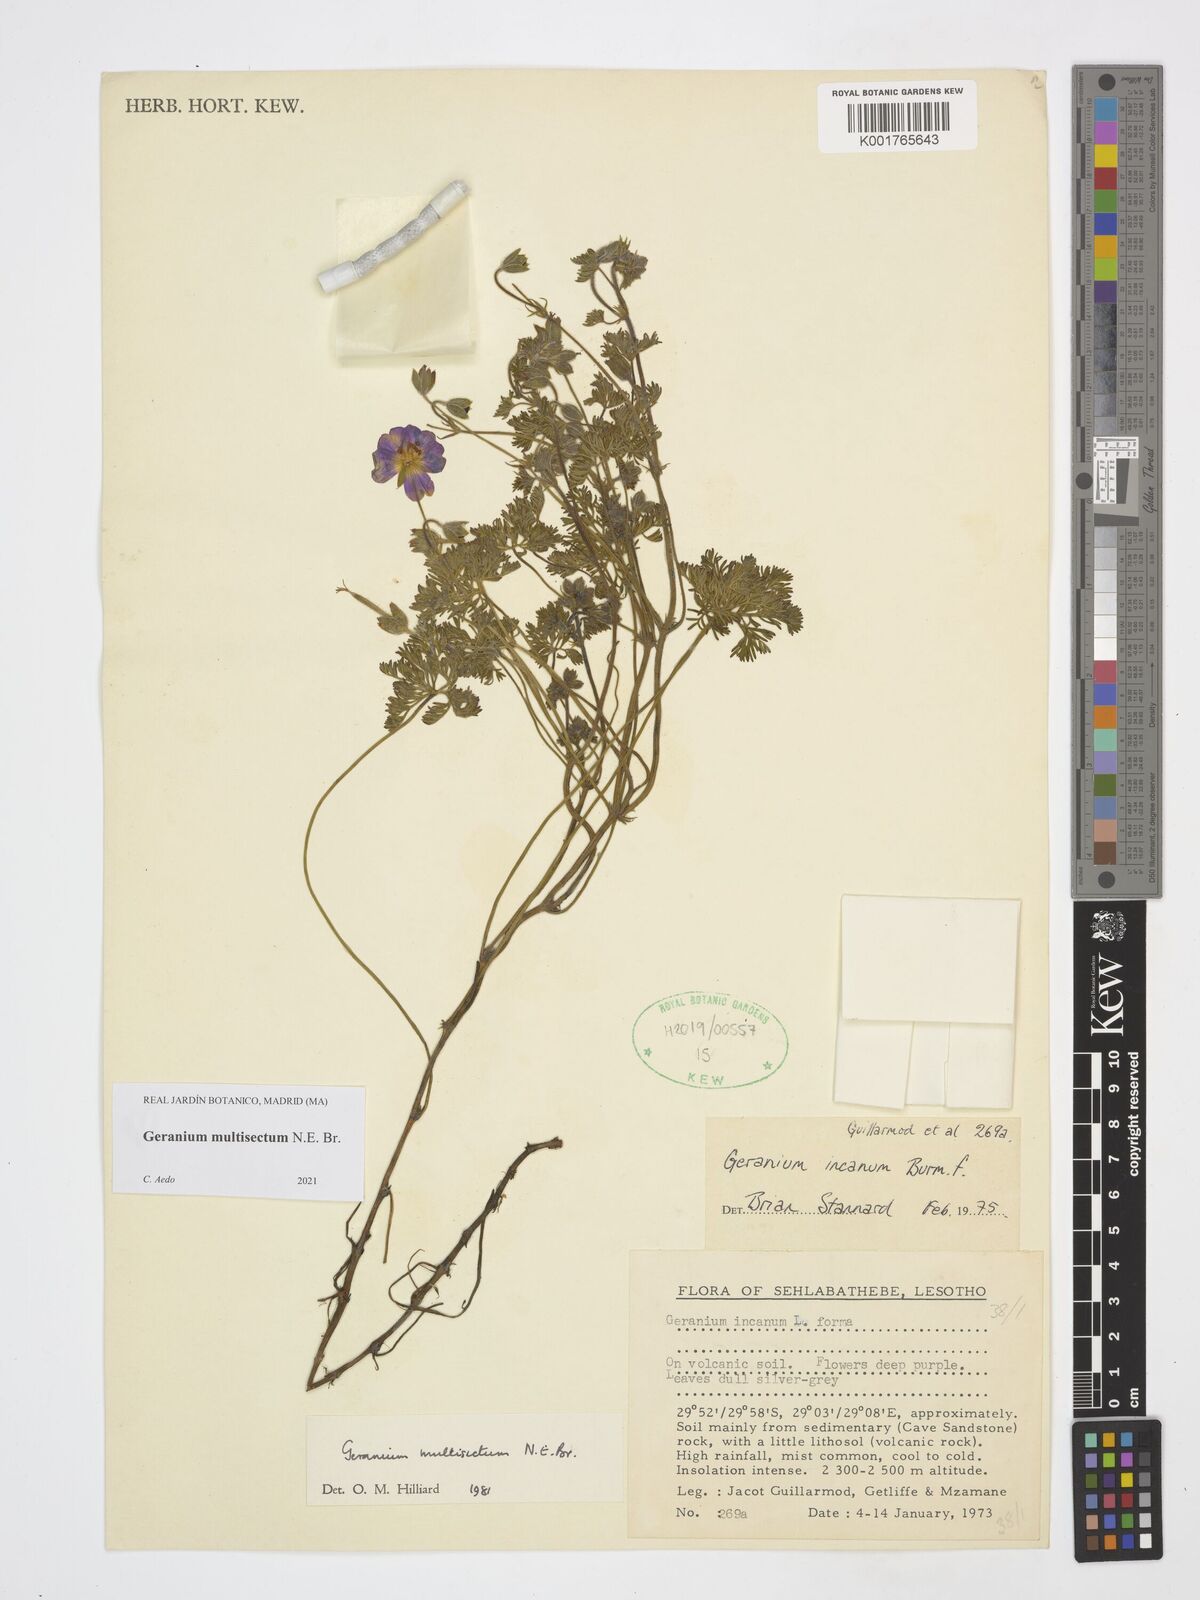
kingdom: Plantae
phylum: Tracheophyta
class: Magnoliopsida
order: Geraniales
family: Geraniaceae
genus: Geranium
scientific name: Geranium multisectum
